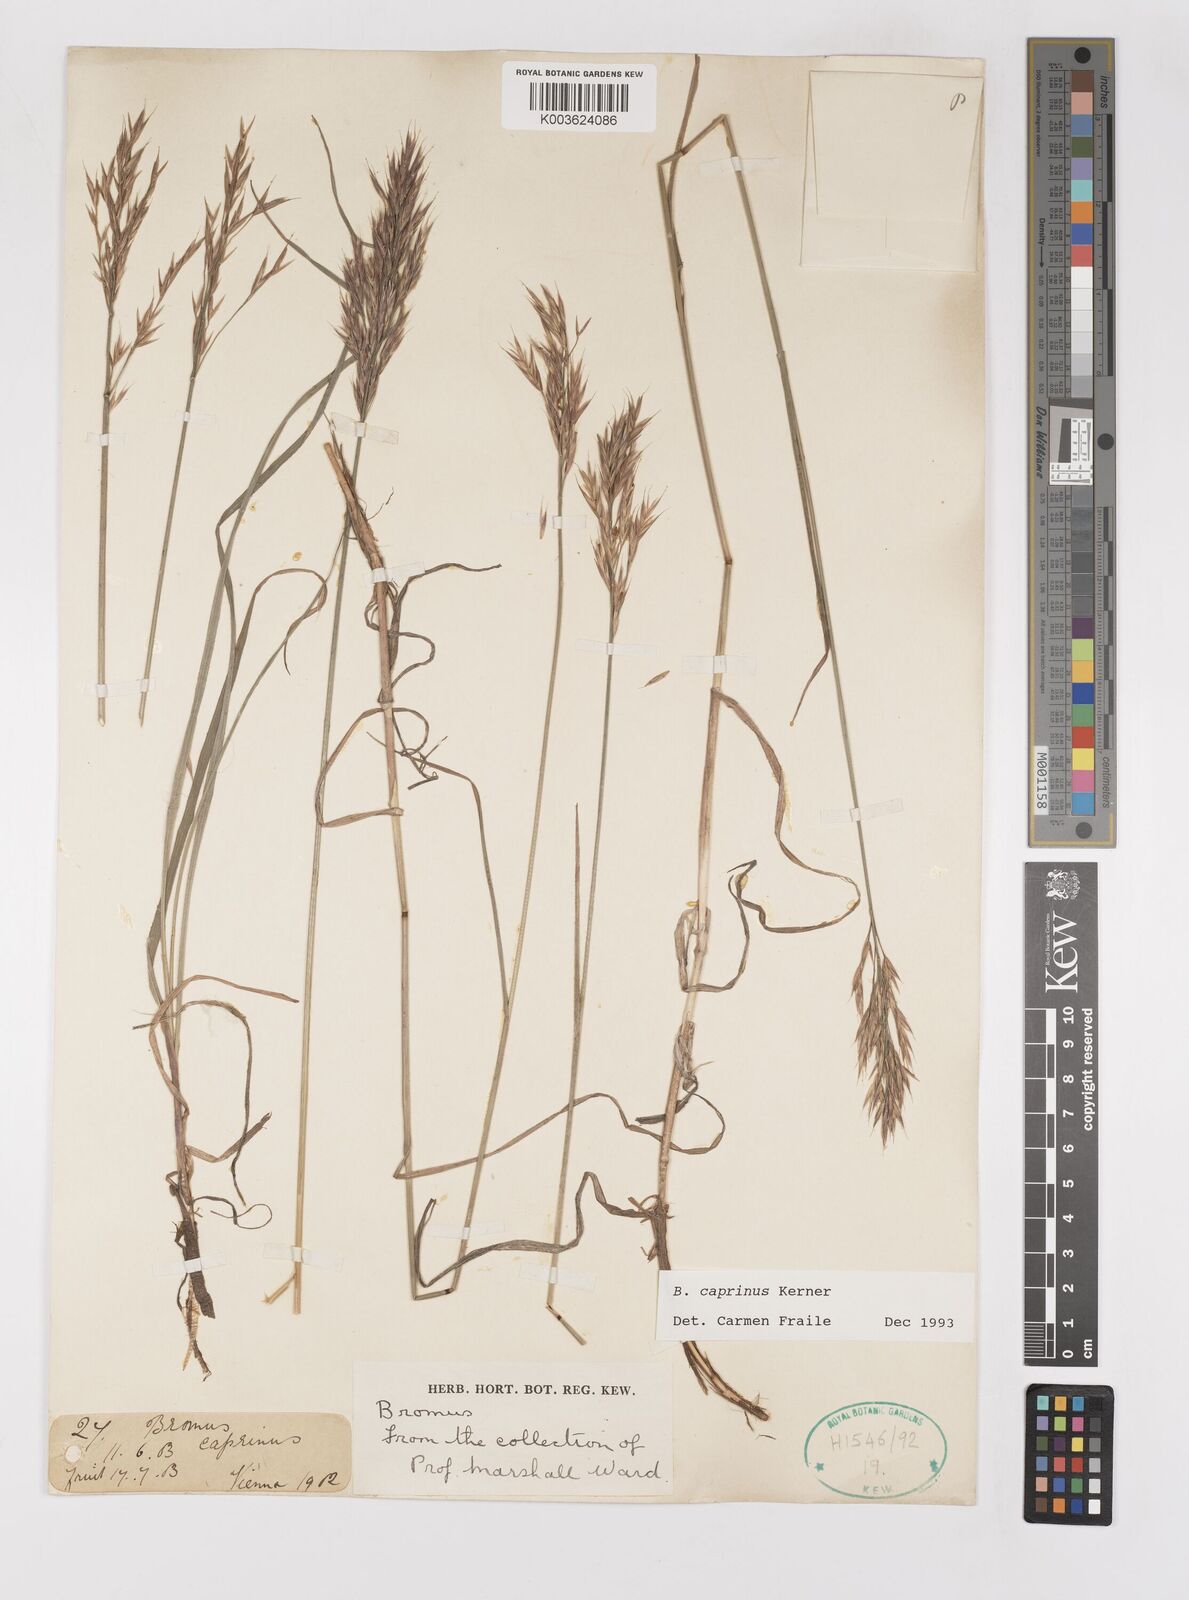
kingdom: Plantae
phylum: Tracheophyta
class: Liliopsida
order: Poales
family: Poaceae
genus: Bromus
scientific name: Bromus erectus
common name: Erect brome
